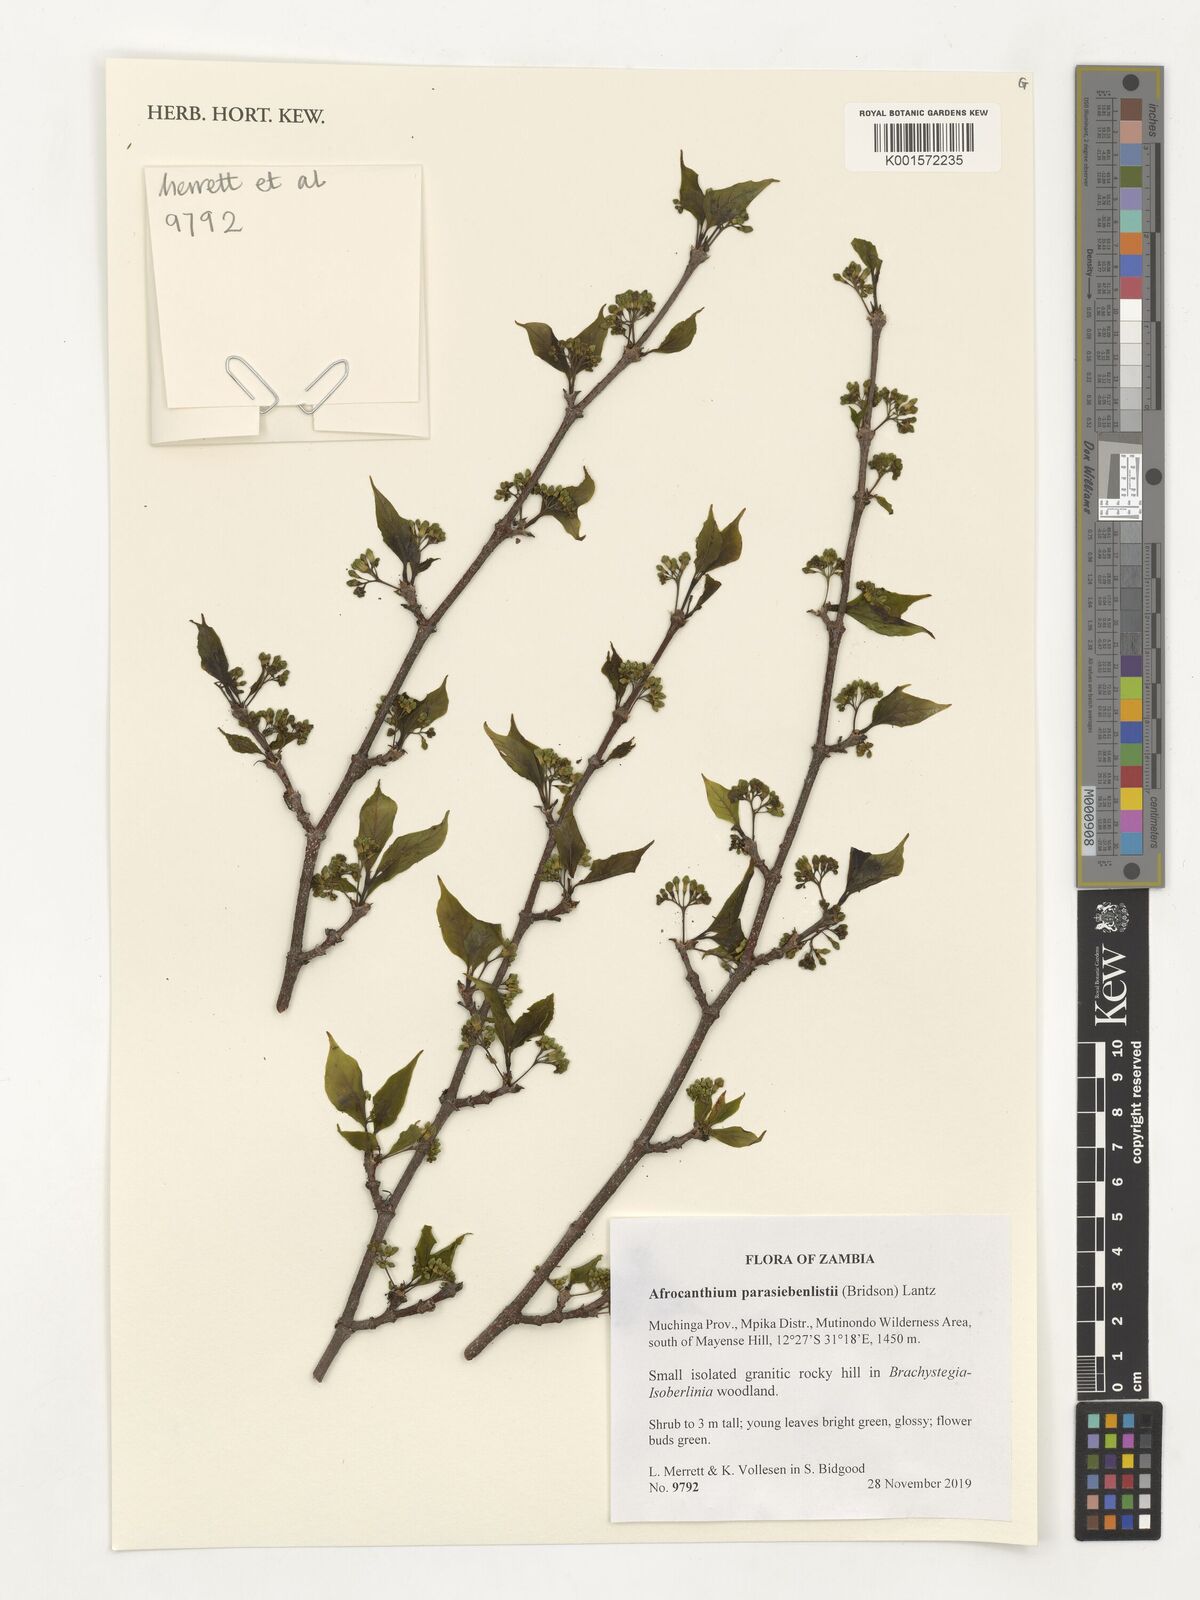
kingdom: Plantae
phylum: Tracheophyta
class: Magnoliopsida
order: Gentianales
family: Rubiaceae
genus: Afrocanthium
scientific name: Afrocanthium parasiebenlistii
